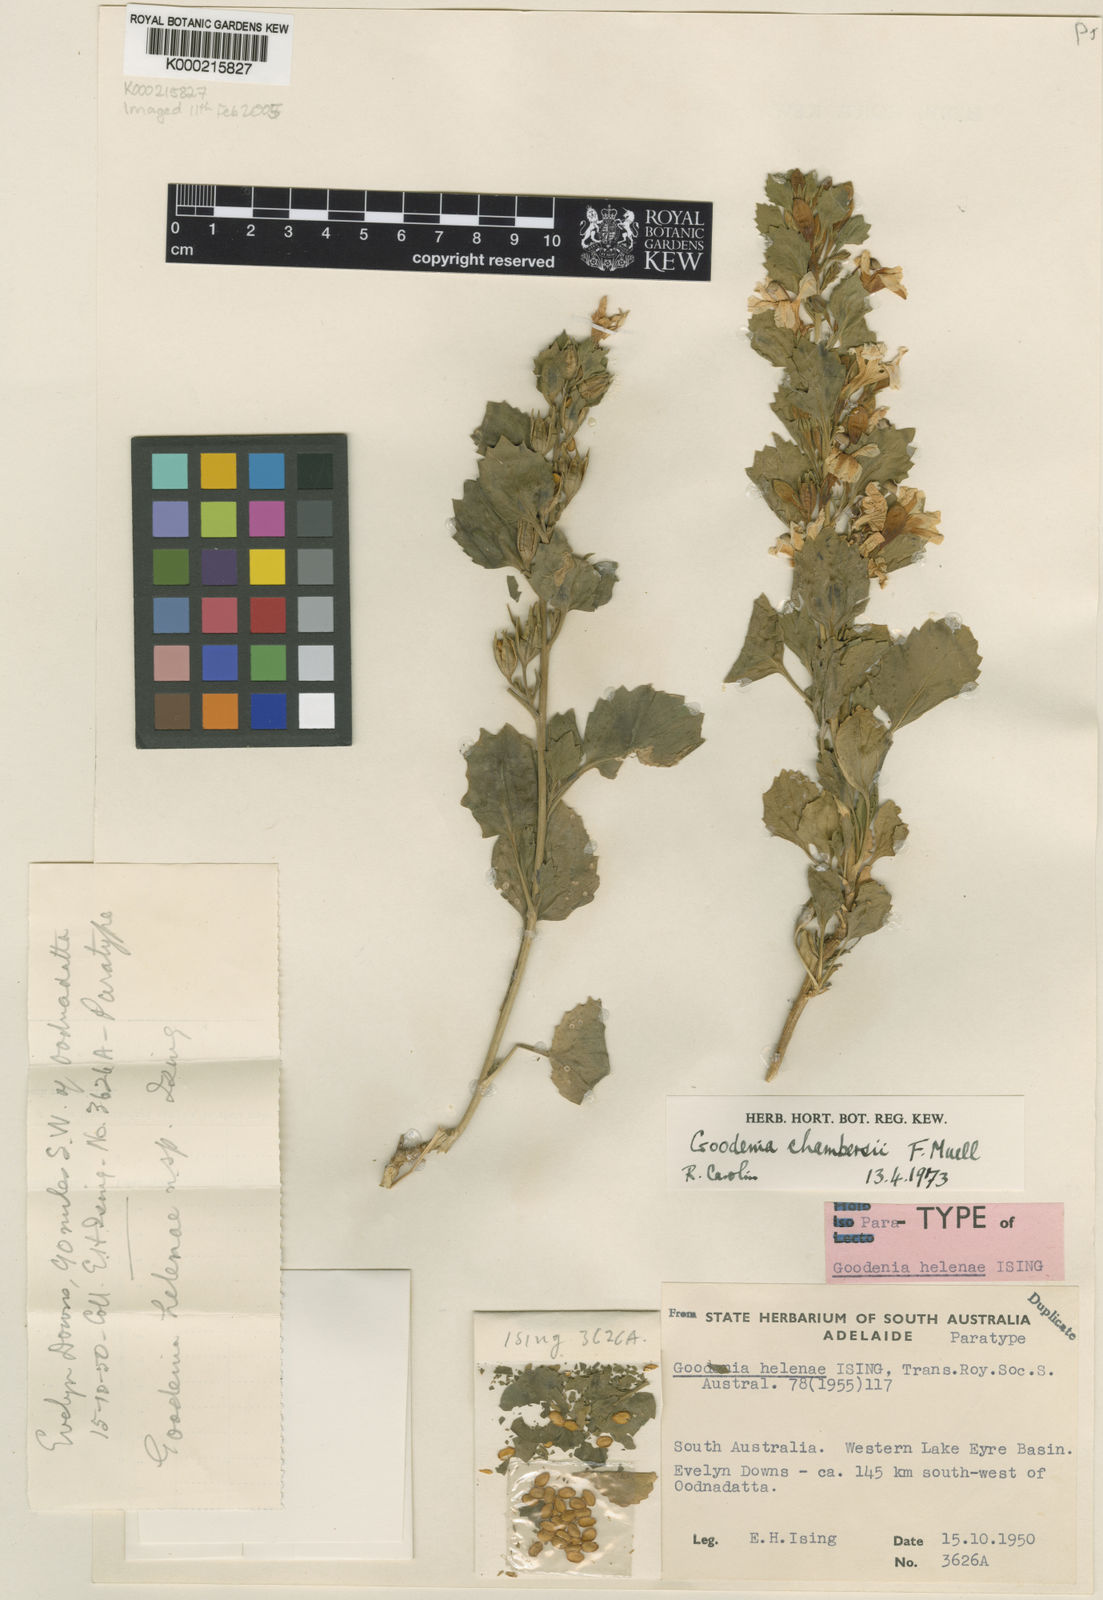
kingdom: Plantae
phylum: Tracheophyta
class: Magnoliopsida
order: Asterales
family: Goodeniaceae
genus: Goodenia
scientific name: Goodenia chambersii
